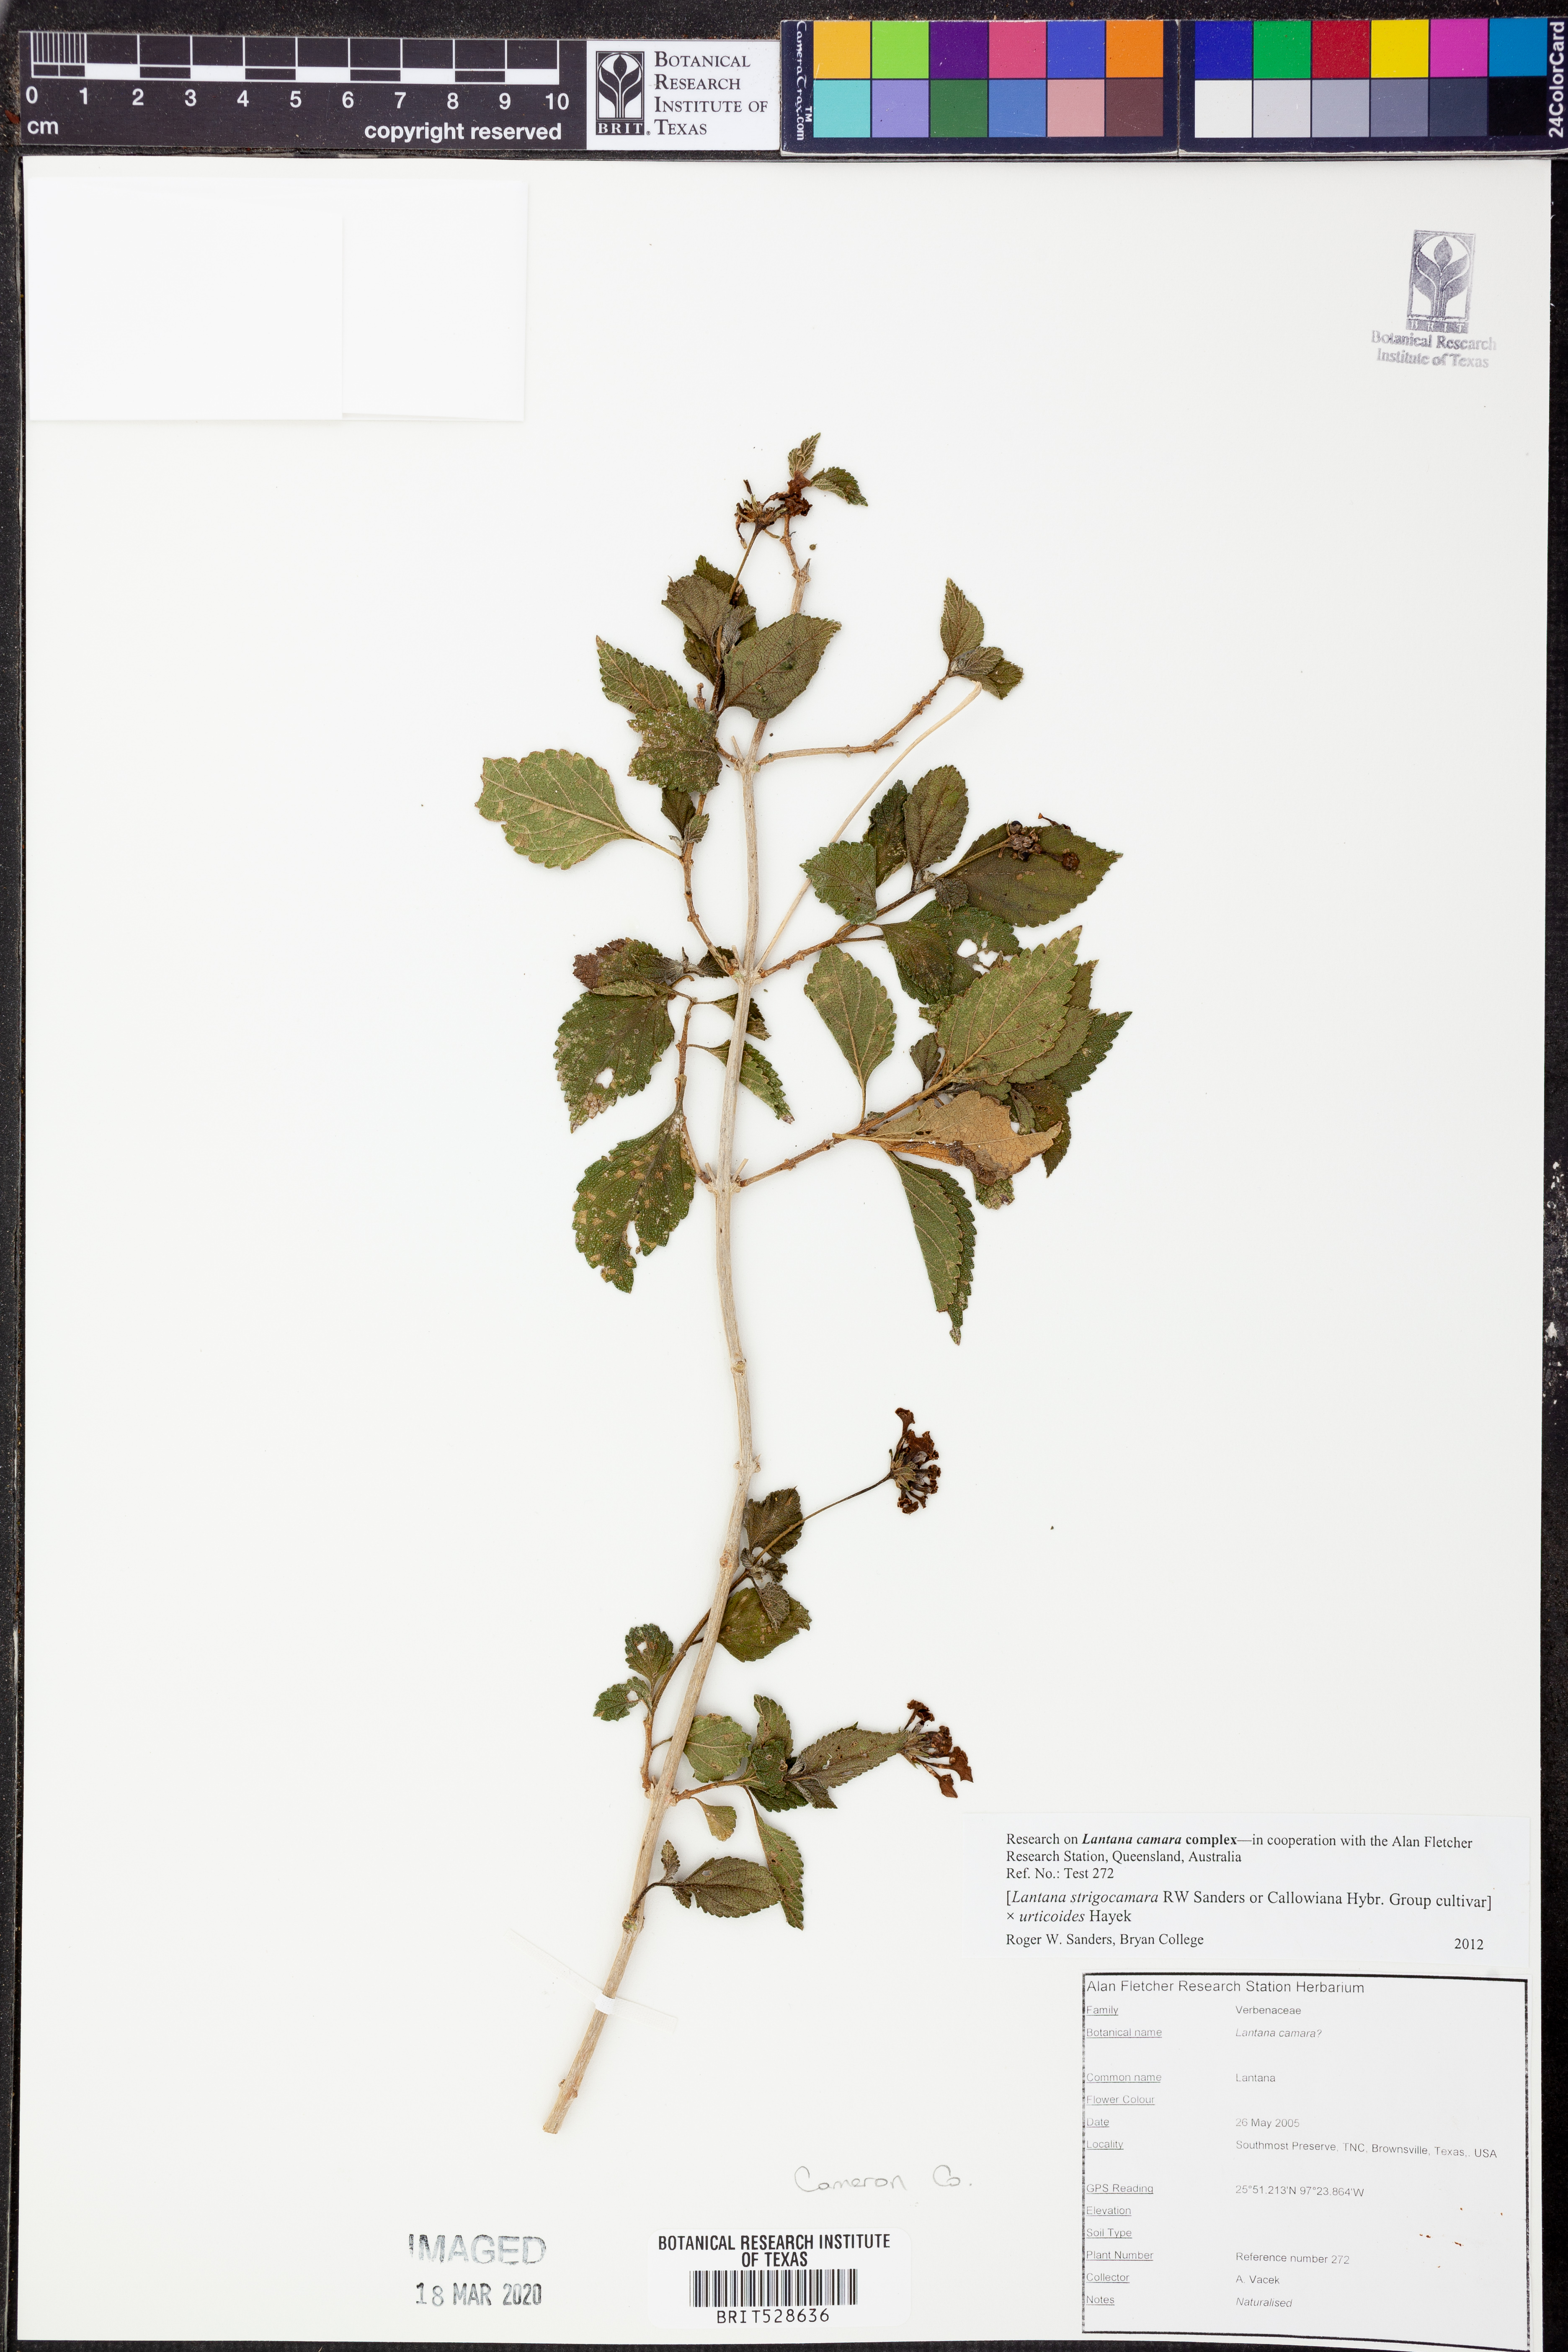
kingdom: Plantae
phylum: Tracheophyta
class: Magnoliopsida
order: Lamiales
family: Verbenaceae
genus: Lantana
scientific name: Lantana strigocamara
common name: Lantana
